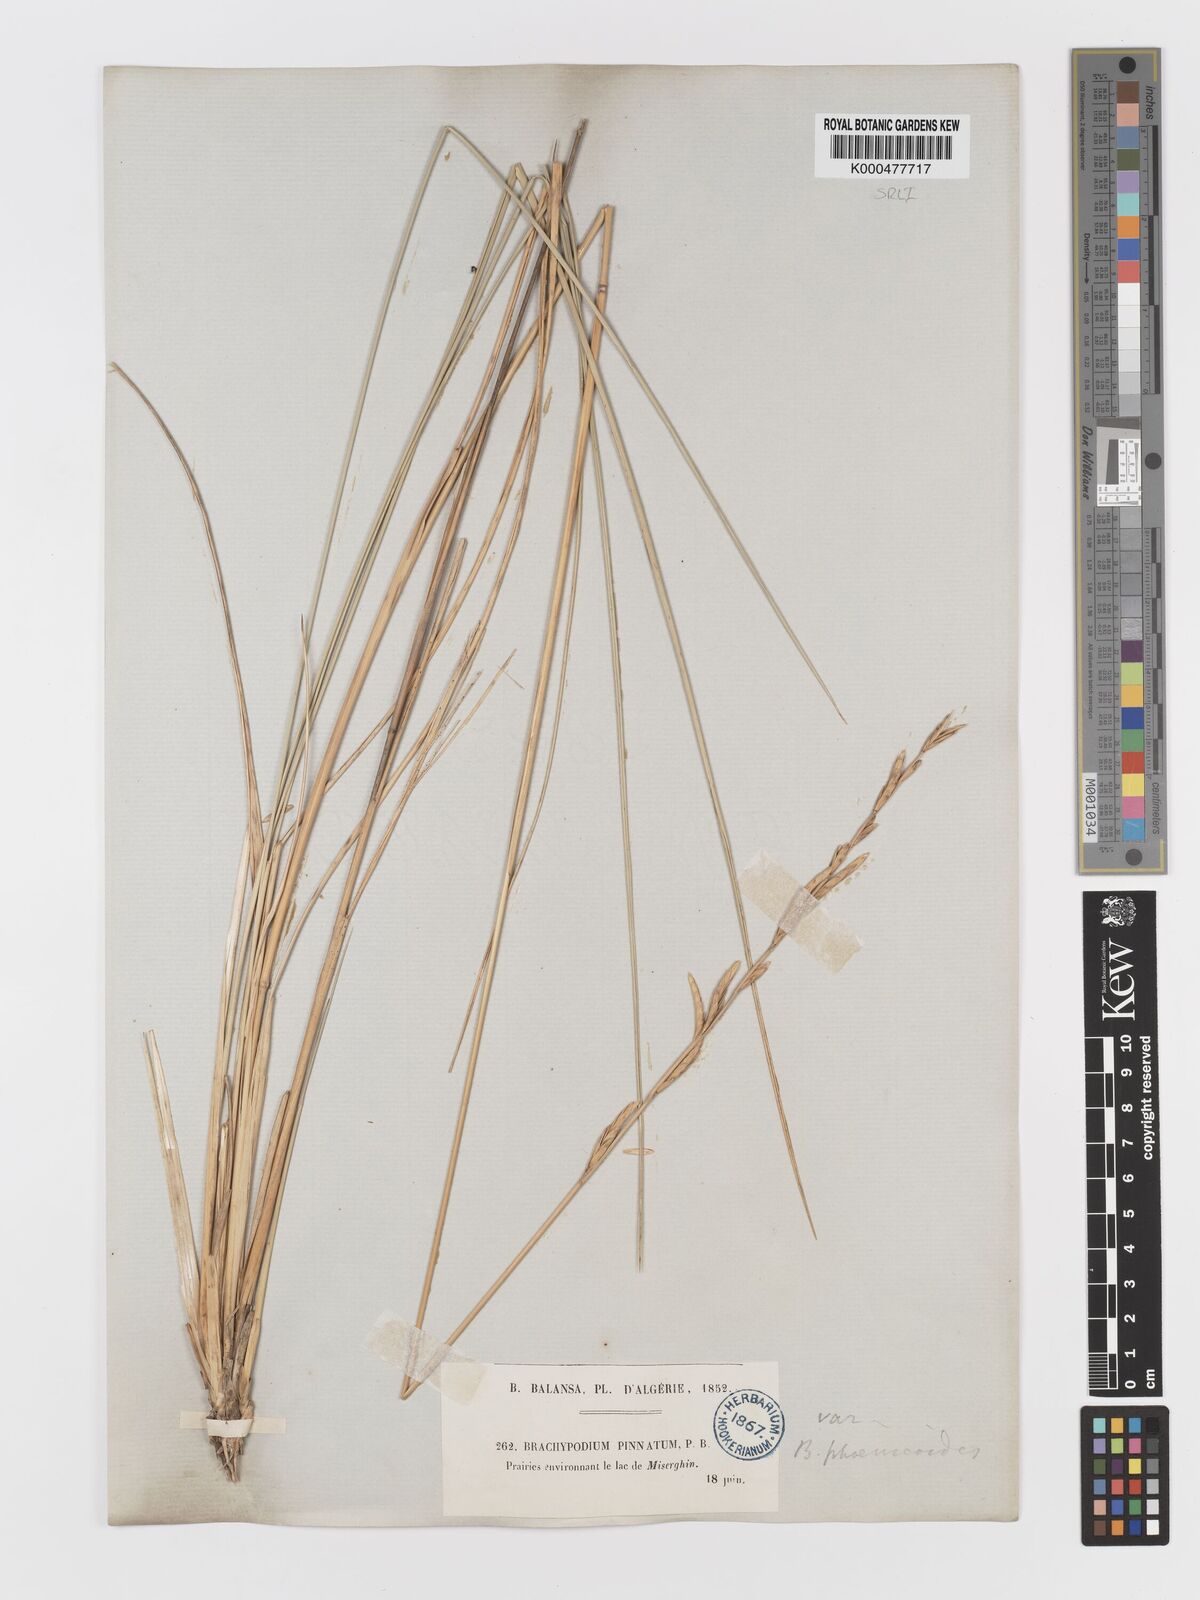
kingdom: Plantae
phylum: Tracheophyta
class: Liliopsida
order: Poales
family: Poaceae
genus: Brachypodium
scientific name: Brachypodium retusum
